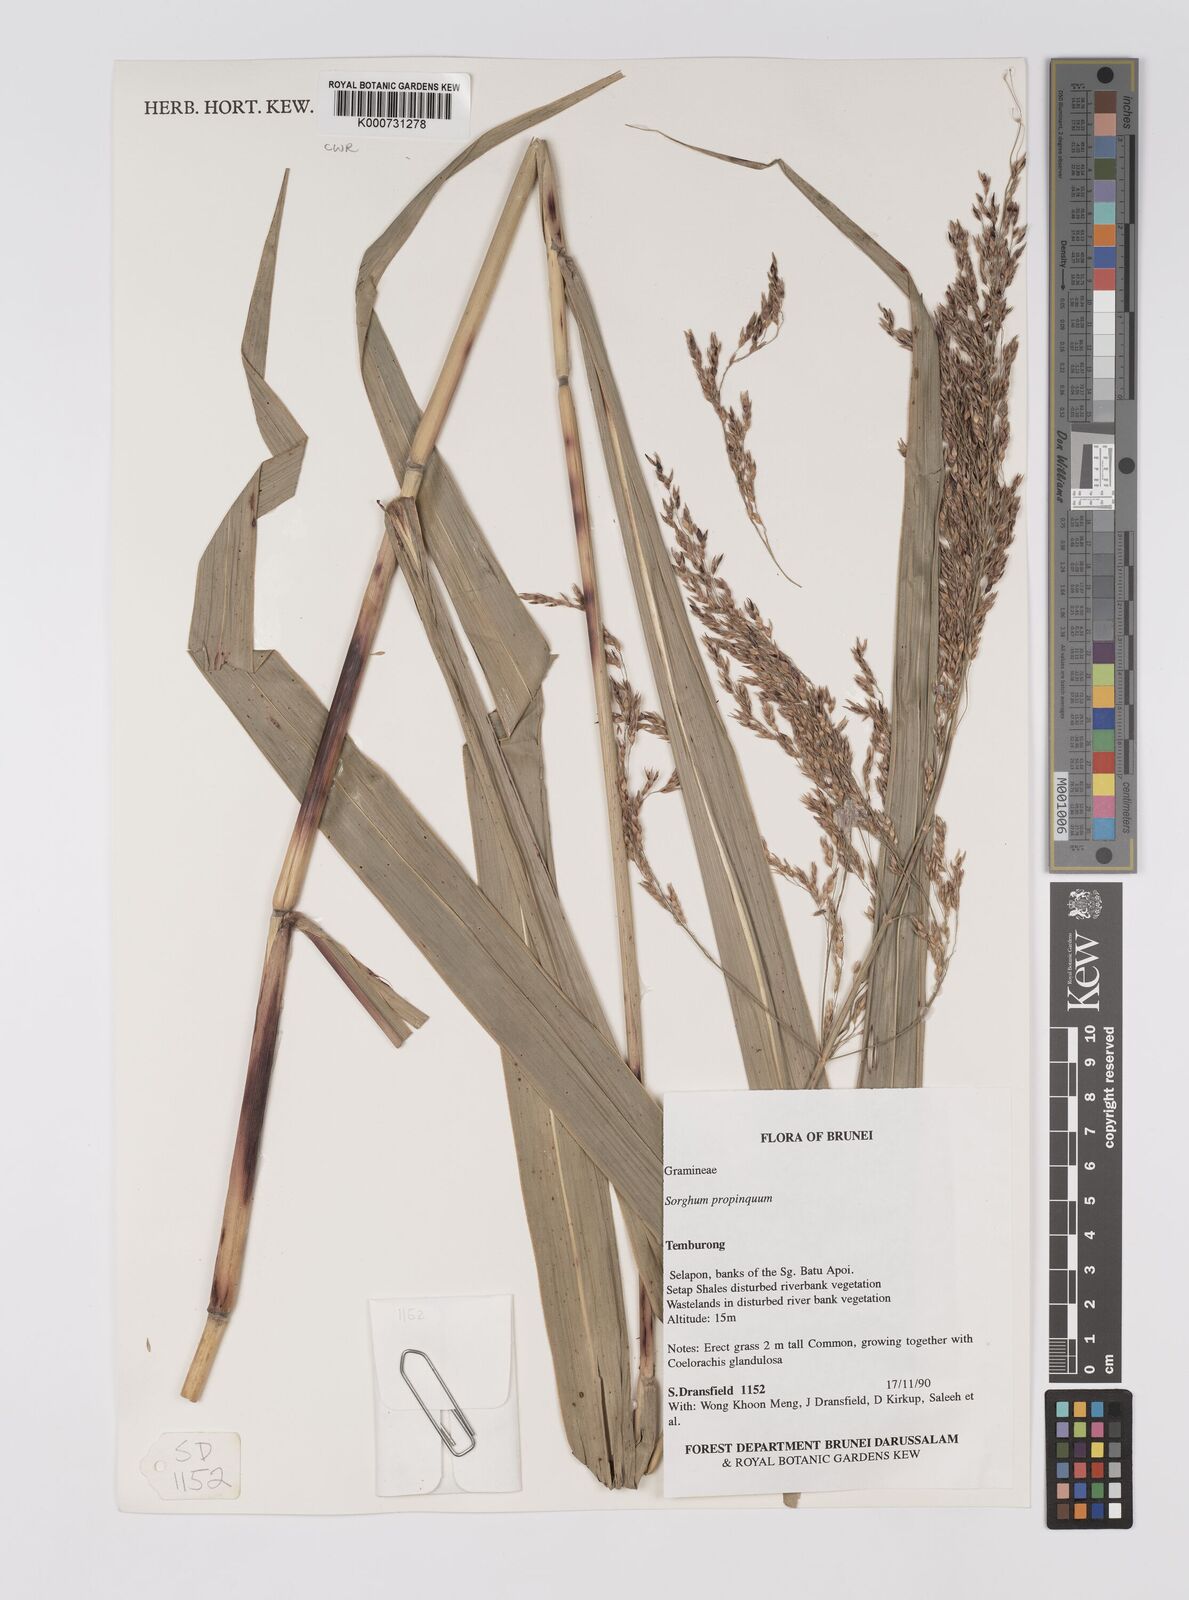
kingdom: Plantae
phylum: Tracheophyta
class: Liliopsida
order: Poales
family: Poaceae
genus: Sorghum
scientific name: Sorghum propinquum
